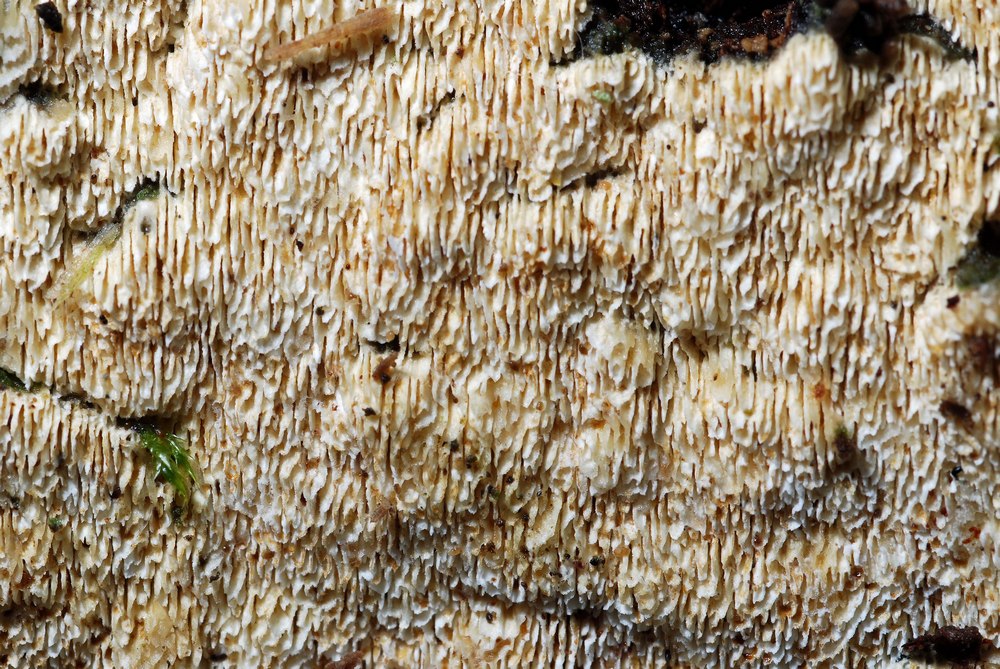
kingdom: Fungi
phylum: Basidiomycota
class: Agaricomycetes
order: Hymenochaetales
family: Schizoporaceae
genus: Xylodon
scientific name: Xylodon subtropicus
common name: labyrint-tandsvamp
